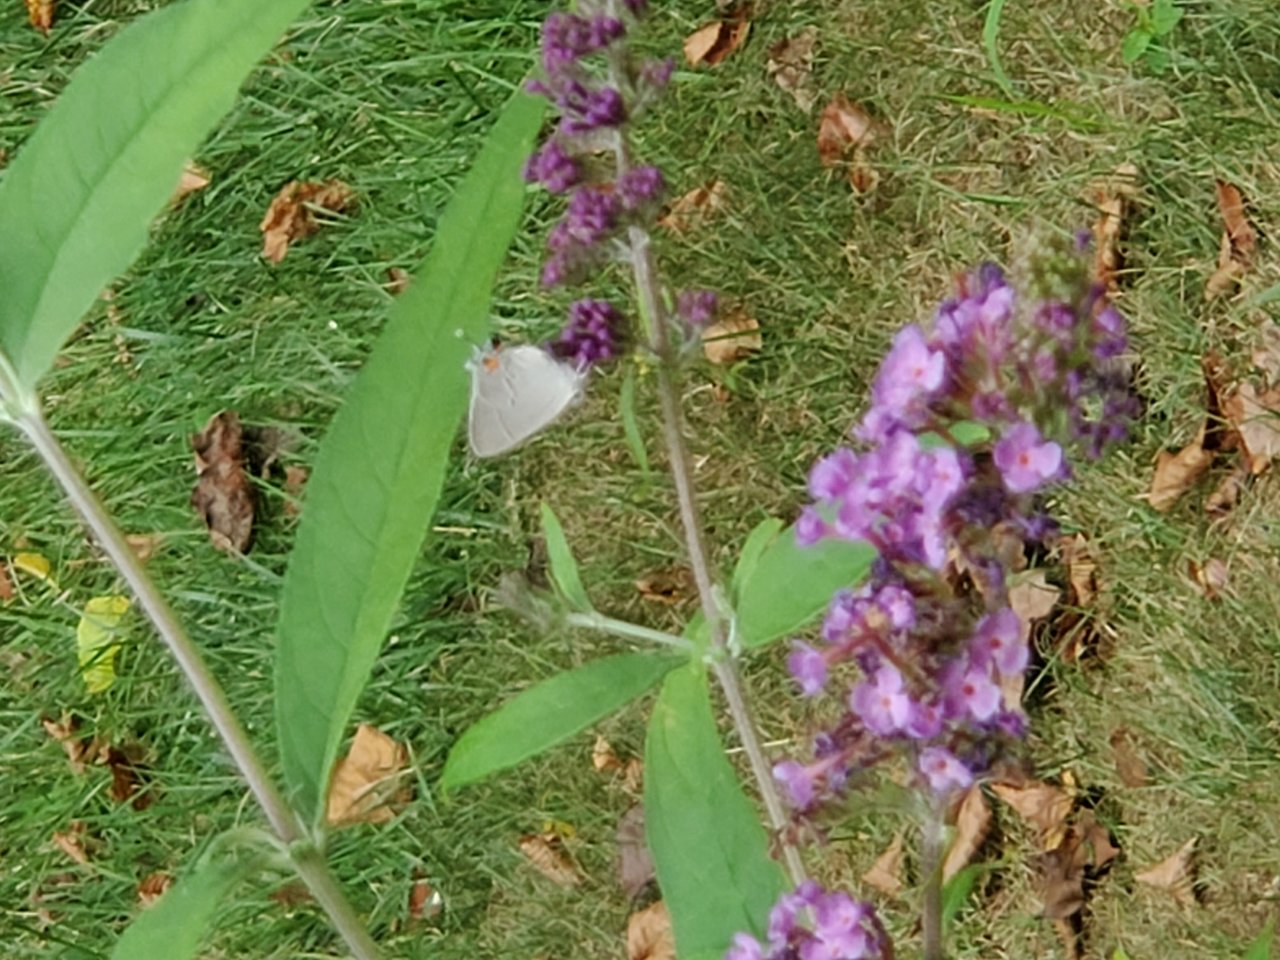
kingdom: Animalia
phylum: Arthropoda
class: Insecta
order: Lepidoptera
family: Lycaenidae
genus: Elkalyce
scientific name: Elkalyce comyntas
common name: Eastern Tailed-Blue
